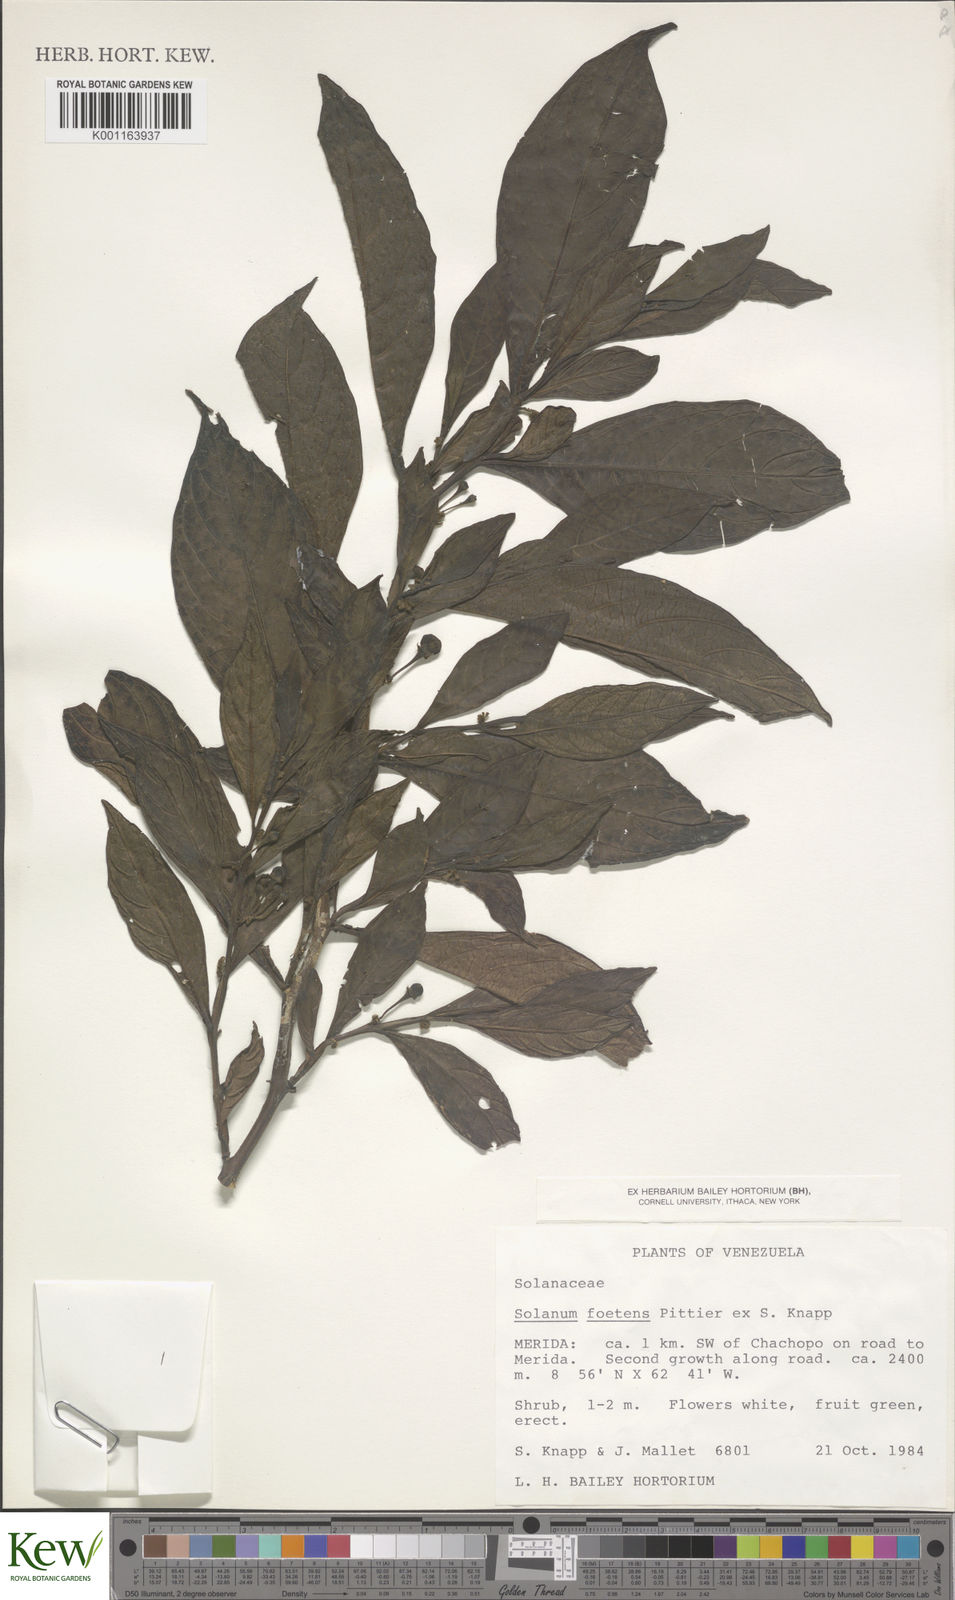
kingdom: Plantae
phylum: Tracheophyta
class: Magnoliopsida
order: Solanales
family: Solanaceae
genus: Solanum
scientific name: Solanum foetens
